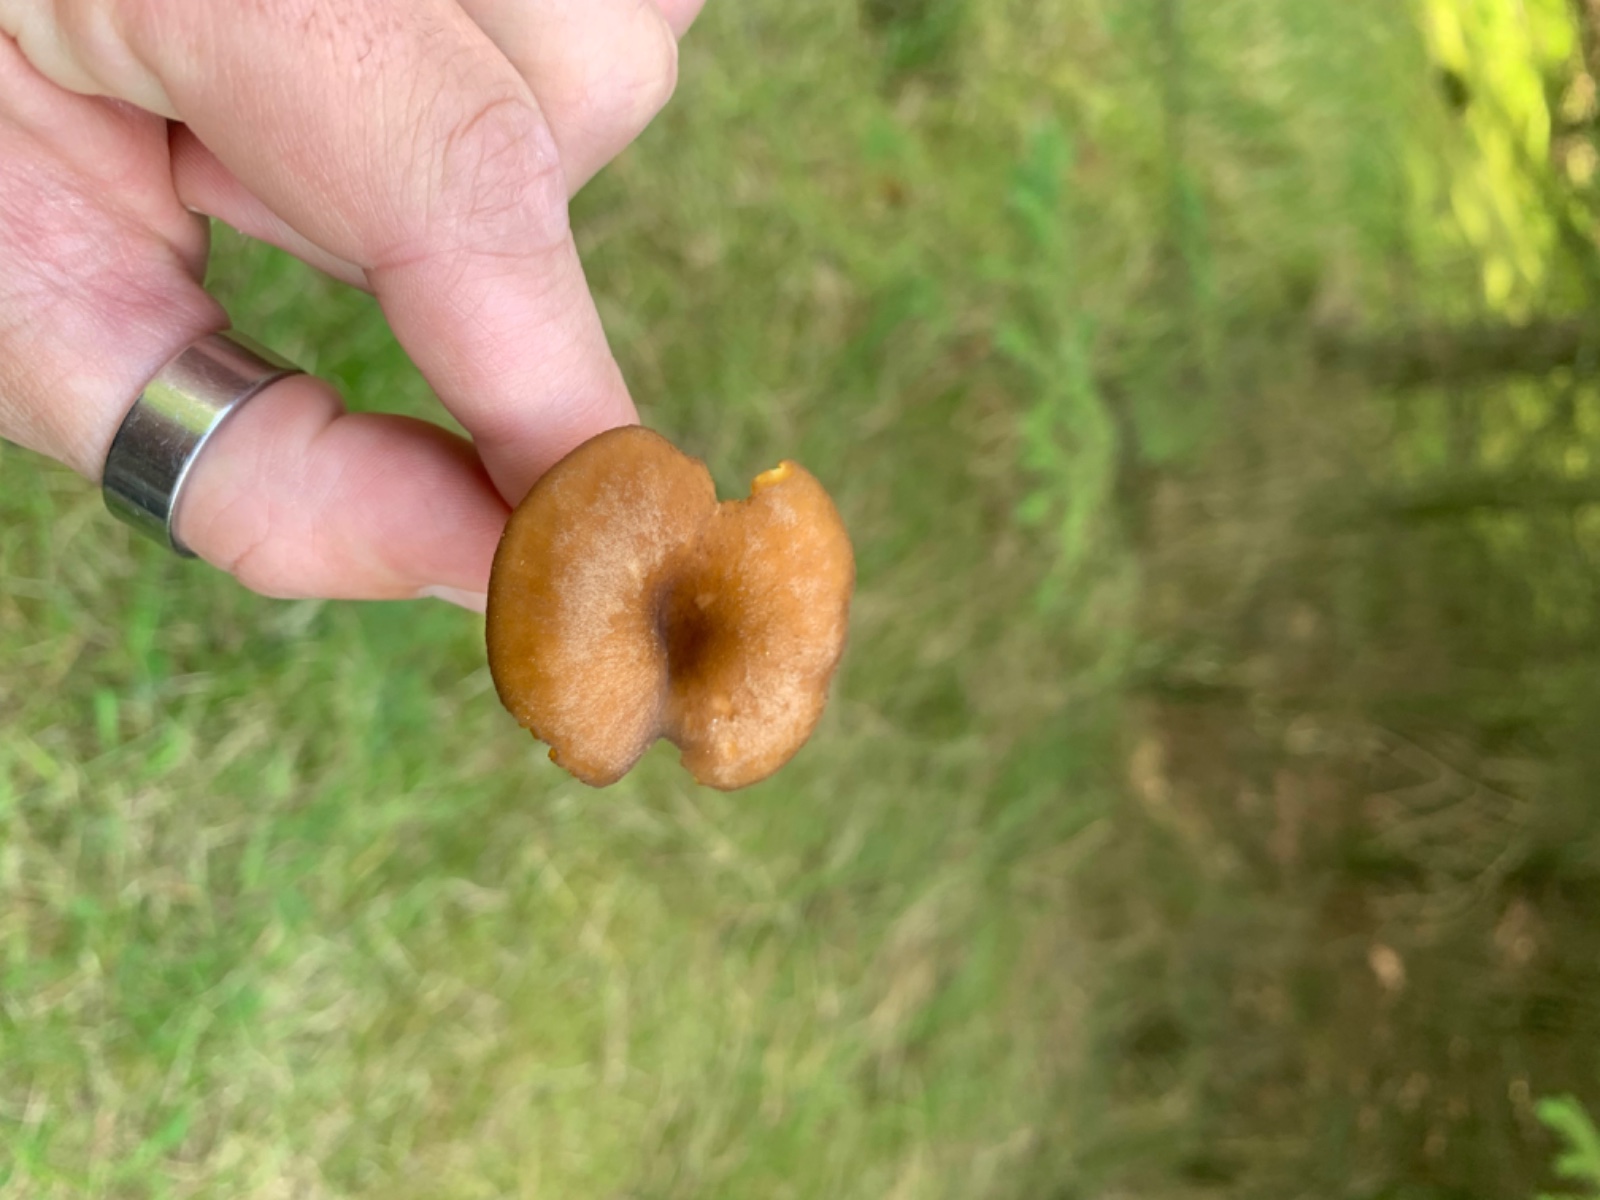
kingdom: Fungi
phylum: Basidiomycota
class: Agaricomycetes
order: Agaricales
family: Hygrophoraceae
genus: Chrysomphalina
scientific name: Chrysomphalina chrysophylla
